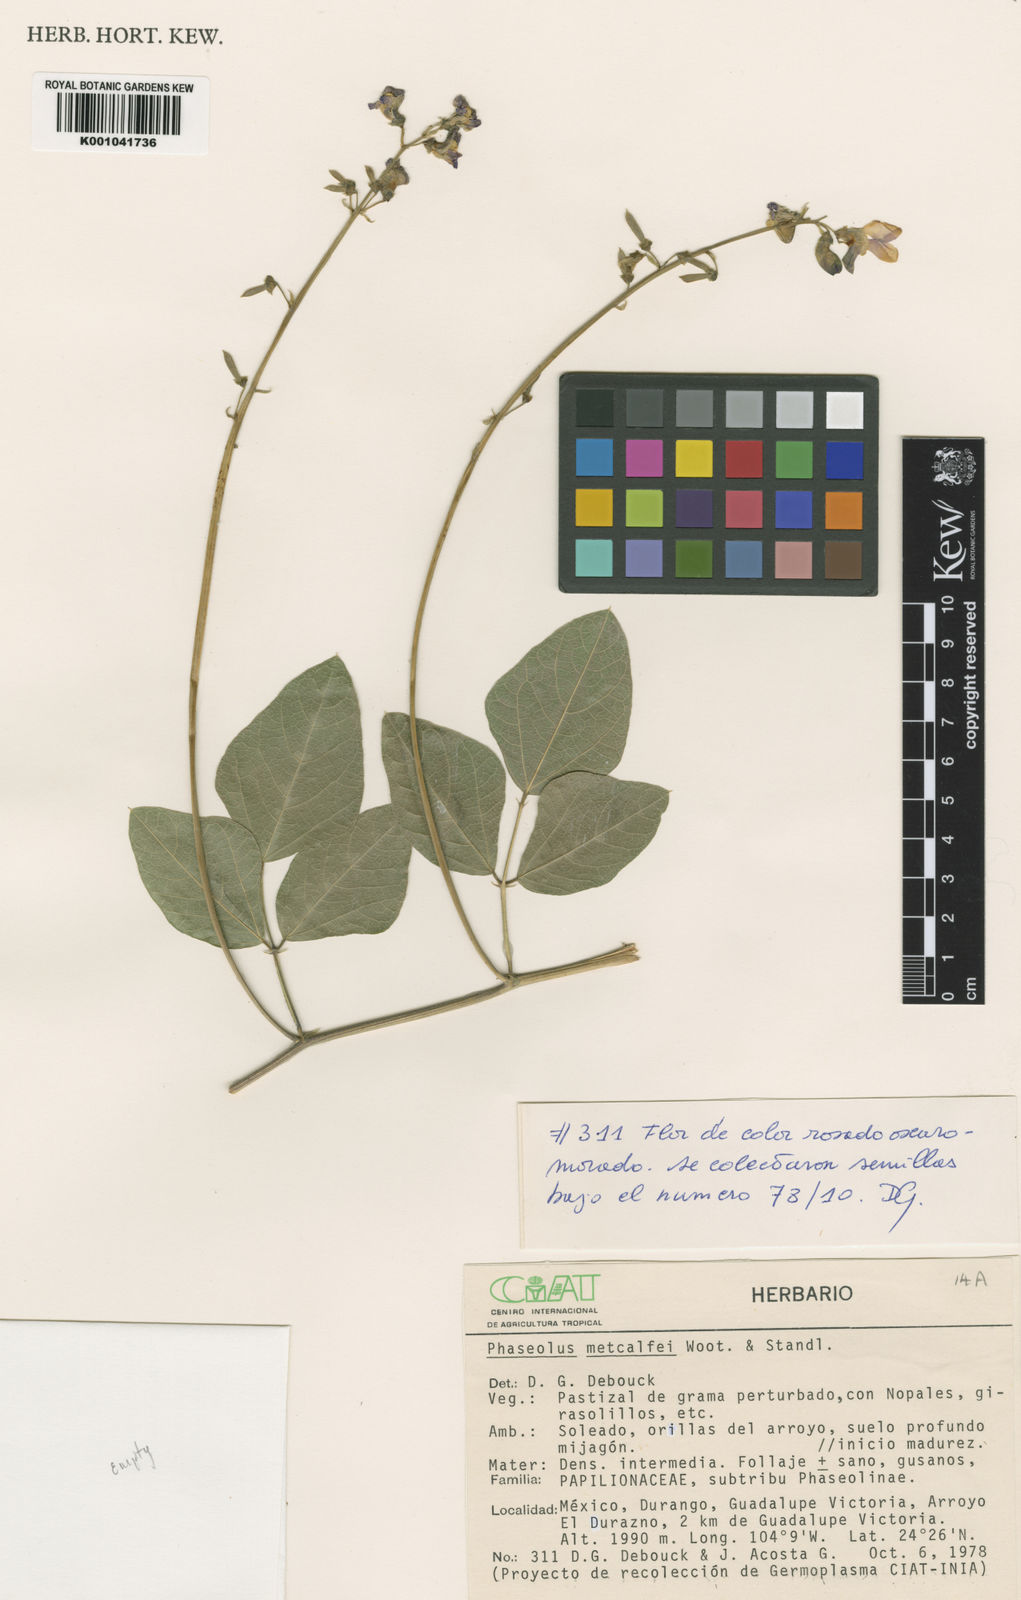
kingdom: Plantae
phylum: Tracheophyta
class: Magnoliopsida
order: Fabales
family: Fabaceae
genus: Phaseolus
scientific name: Phaseolus
